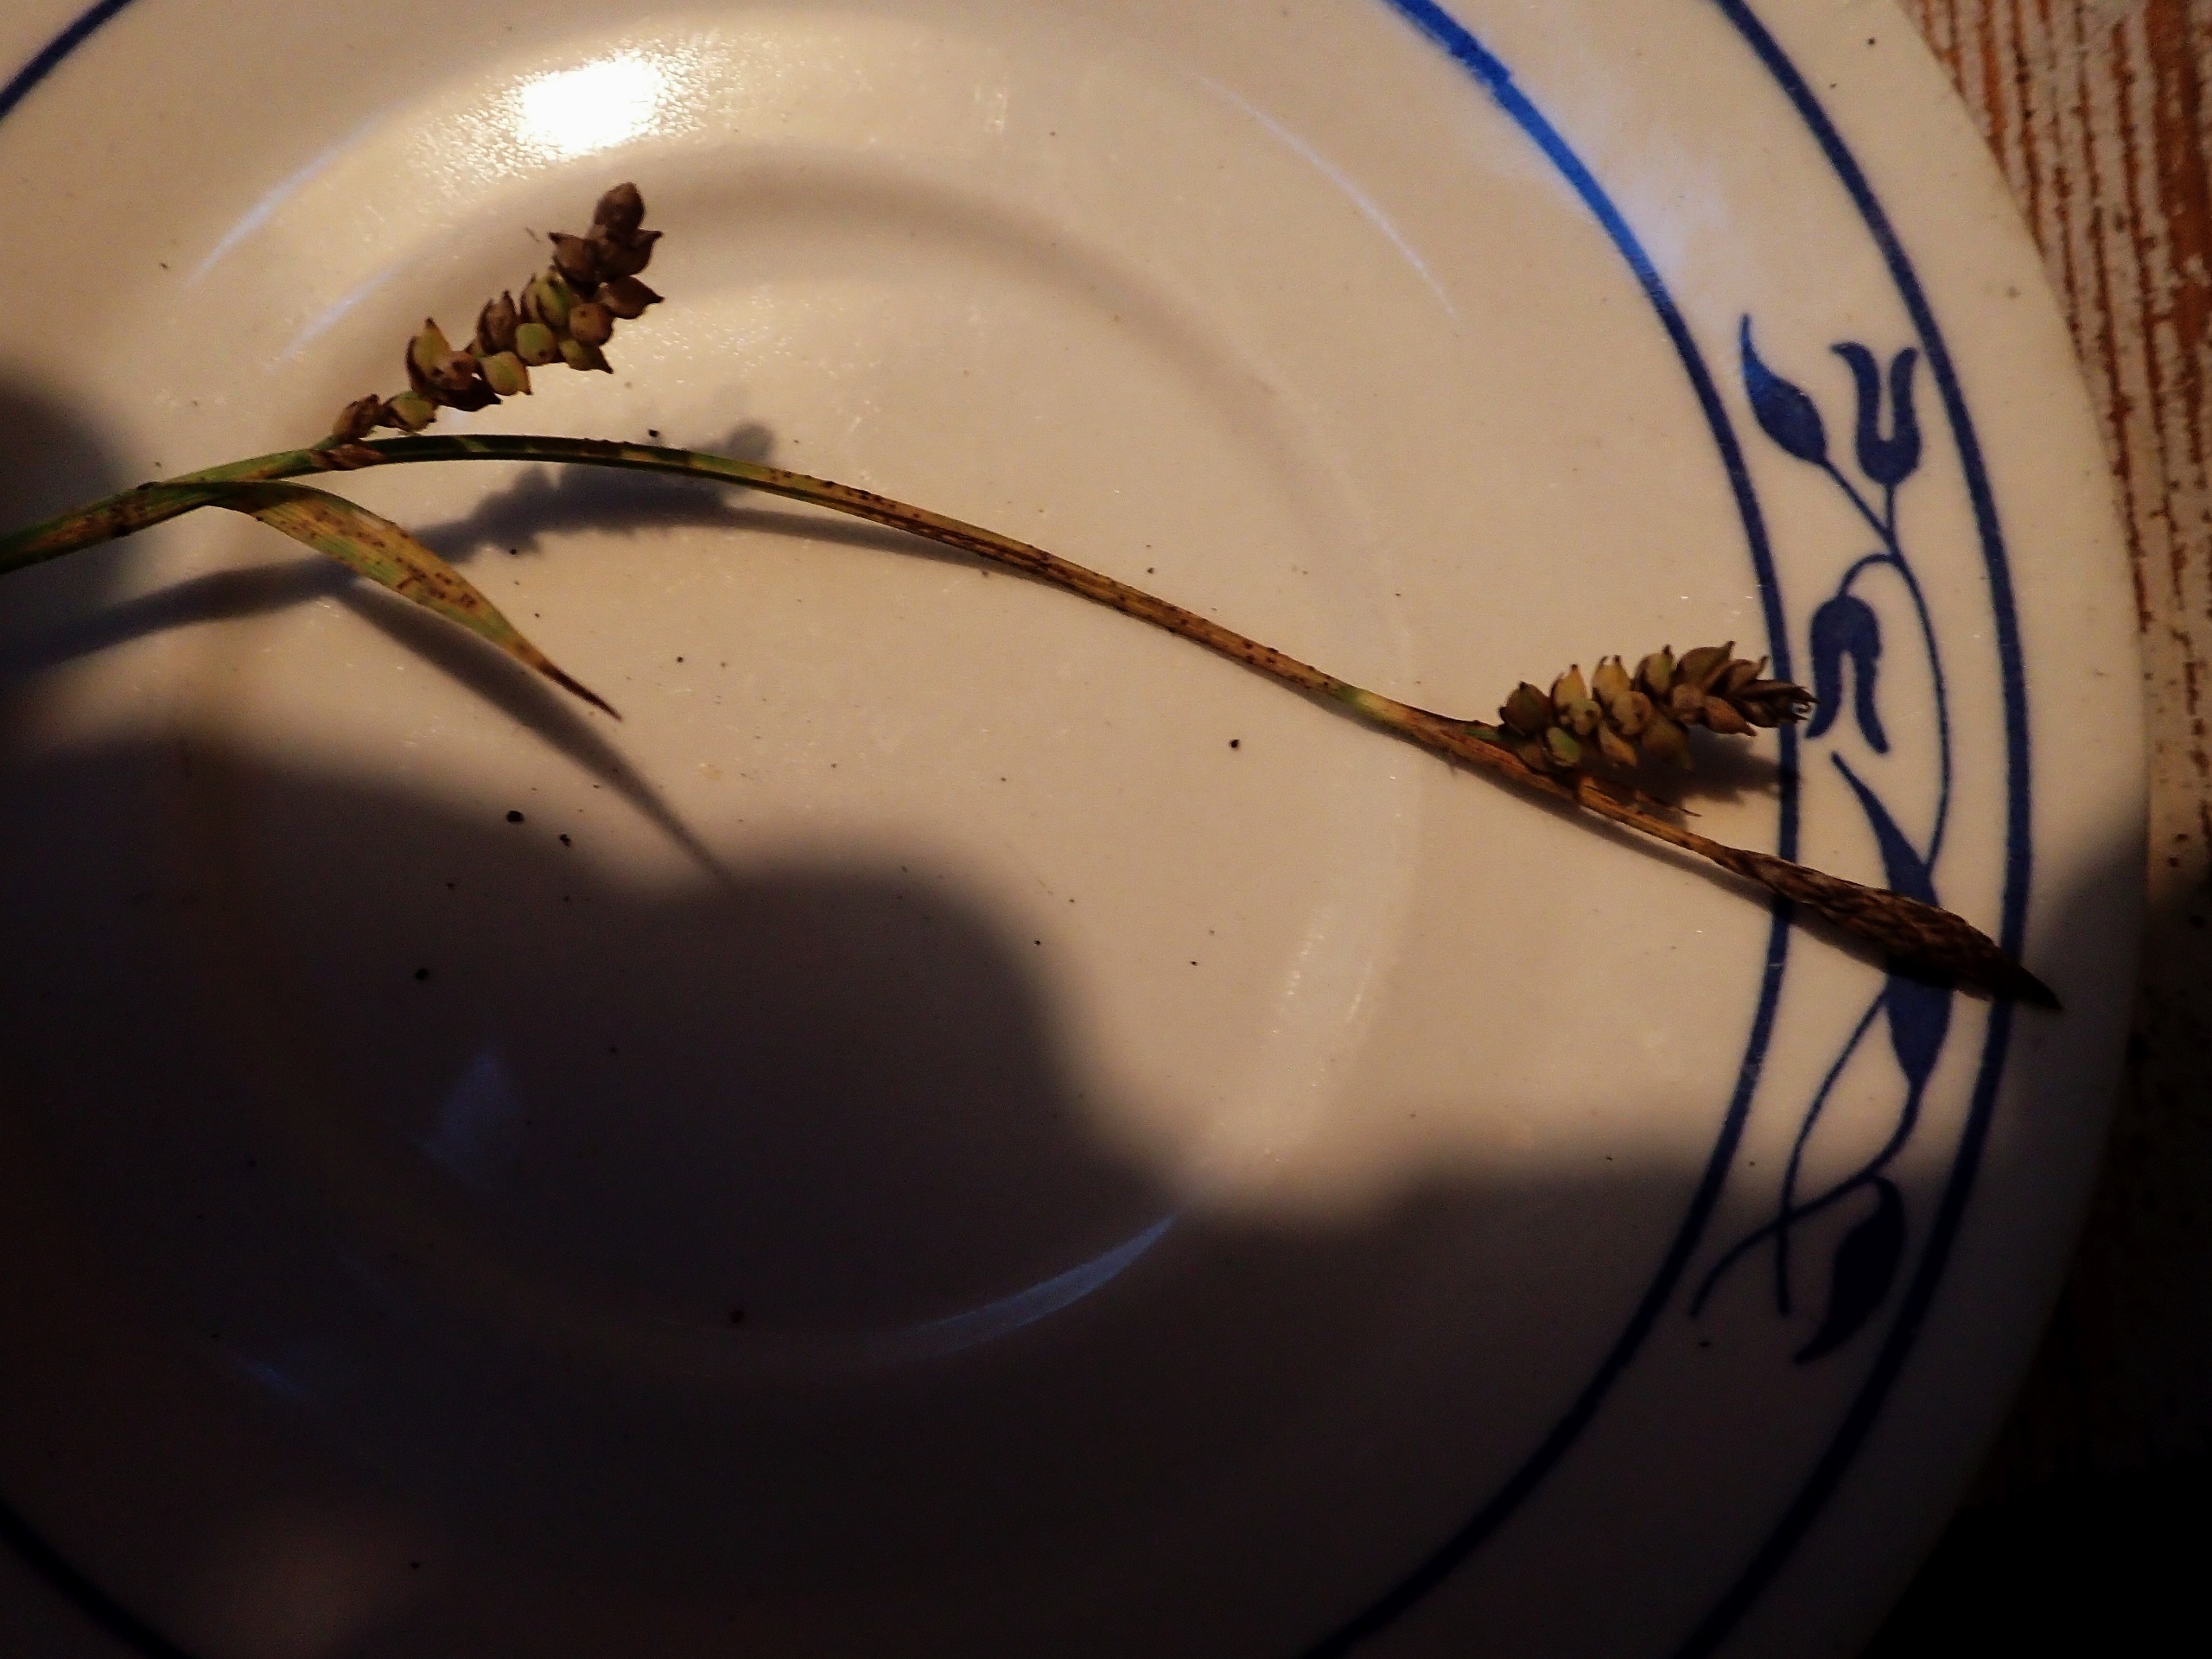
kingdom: Plantae
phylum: Tracheophyta
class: Liliopsida
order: Poales
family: Cyperaceae
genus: Carex
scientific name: Carex panicea
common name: Hirse-star
